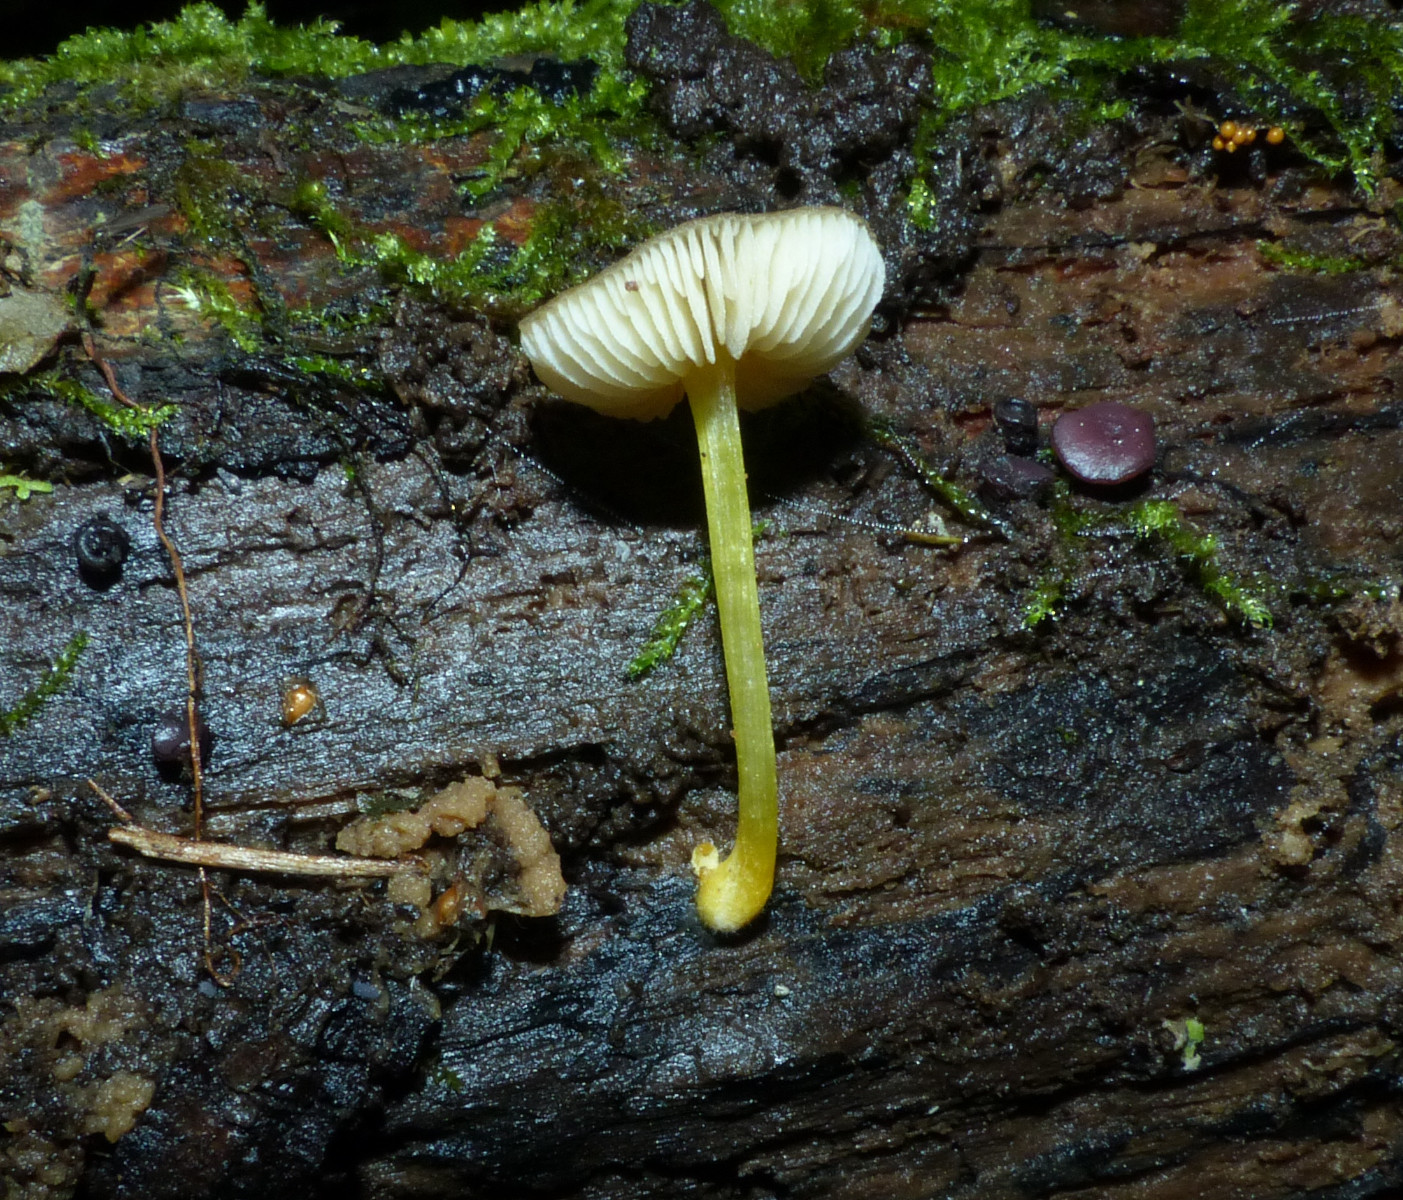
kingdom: Fungi
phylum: Basidiomycota
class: Agaricomycetes
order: Agaricales
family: Pluteaceae
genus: Pluteus
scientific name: Pluteus vellingae
